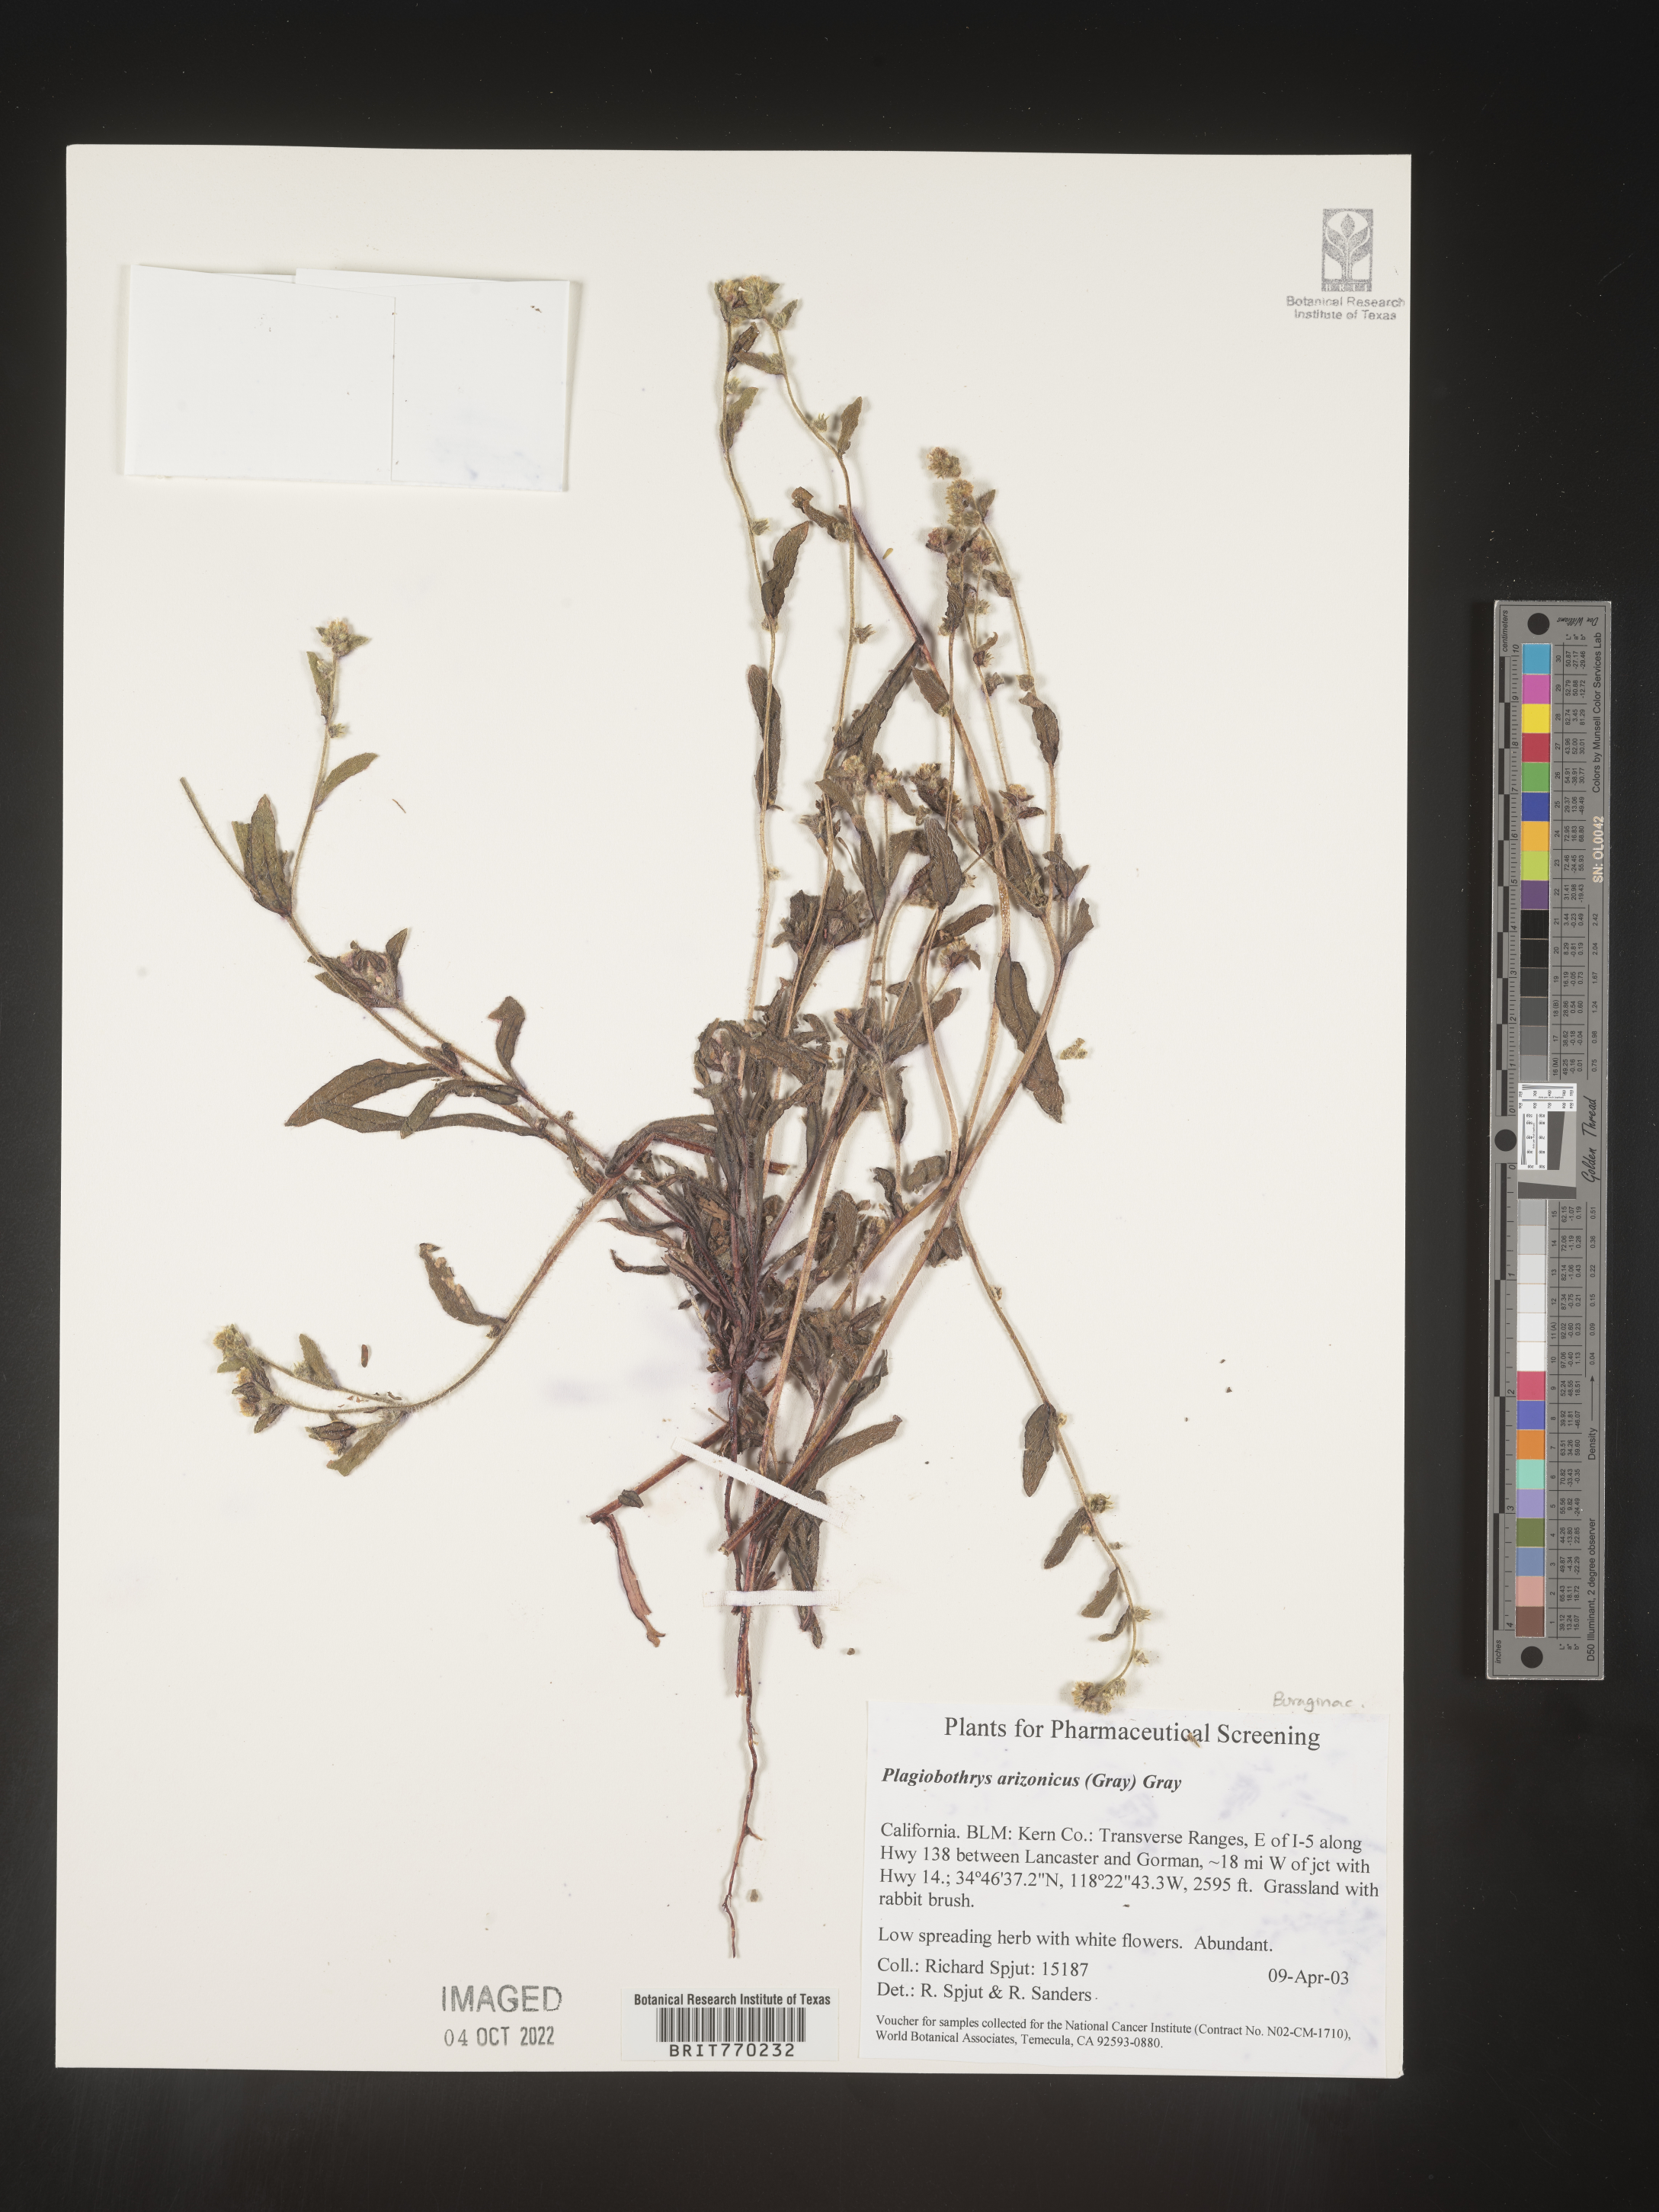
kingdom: Plantae
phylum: Tracheophyta
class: Magnoliopsida
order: Boraginales
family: Boraginaceae
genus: Plagiobothrys
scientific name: Plagiobothrys
